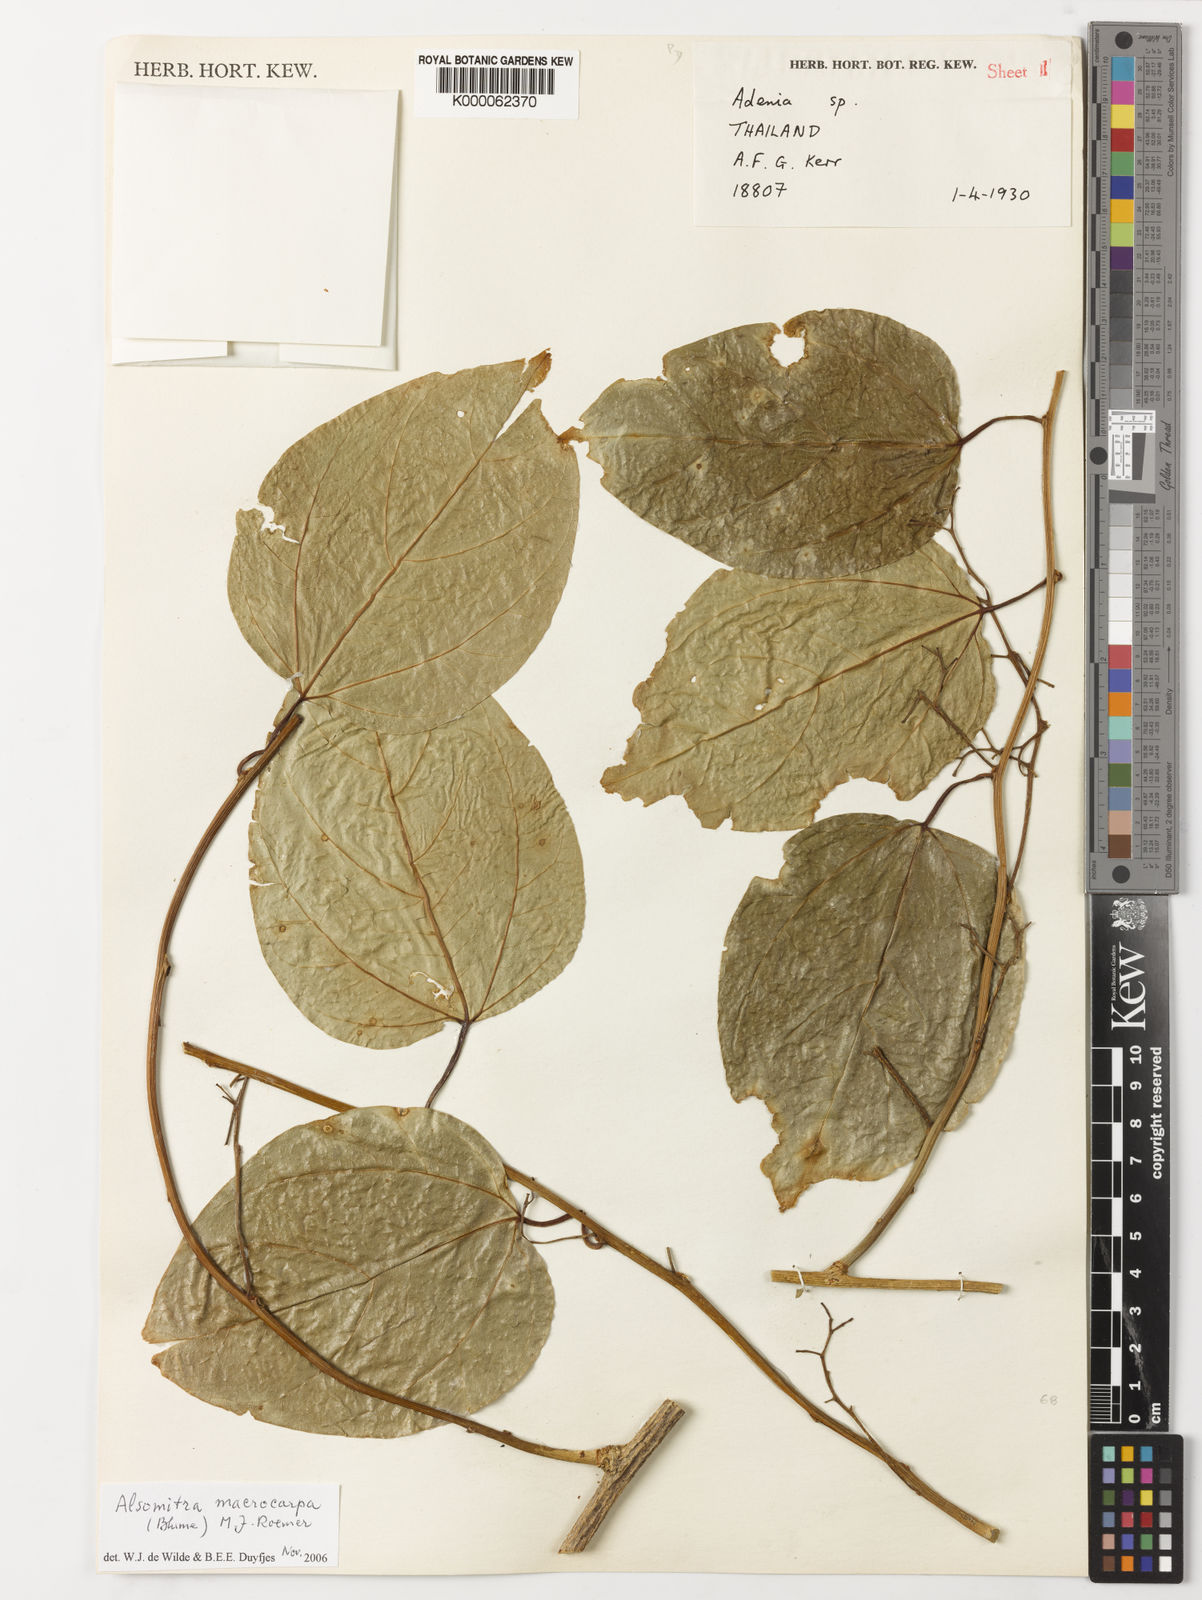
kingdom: Plantae
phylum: Tracheophyta
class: Magnoliopsida
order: Cucurbitales
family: Cucurbitaceae
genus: Alsomitra
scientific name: Alsomitra macrocarpa
